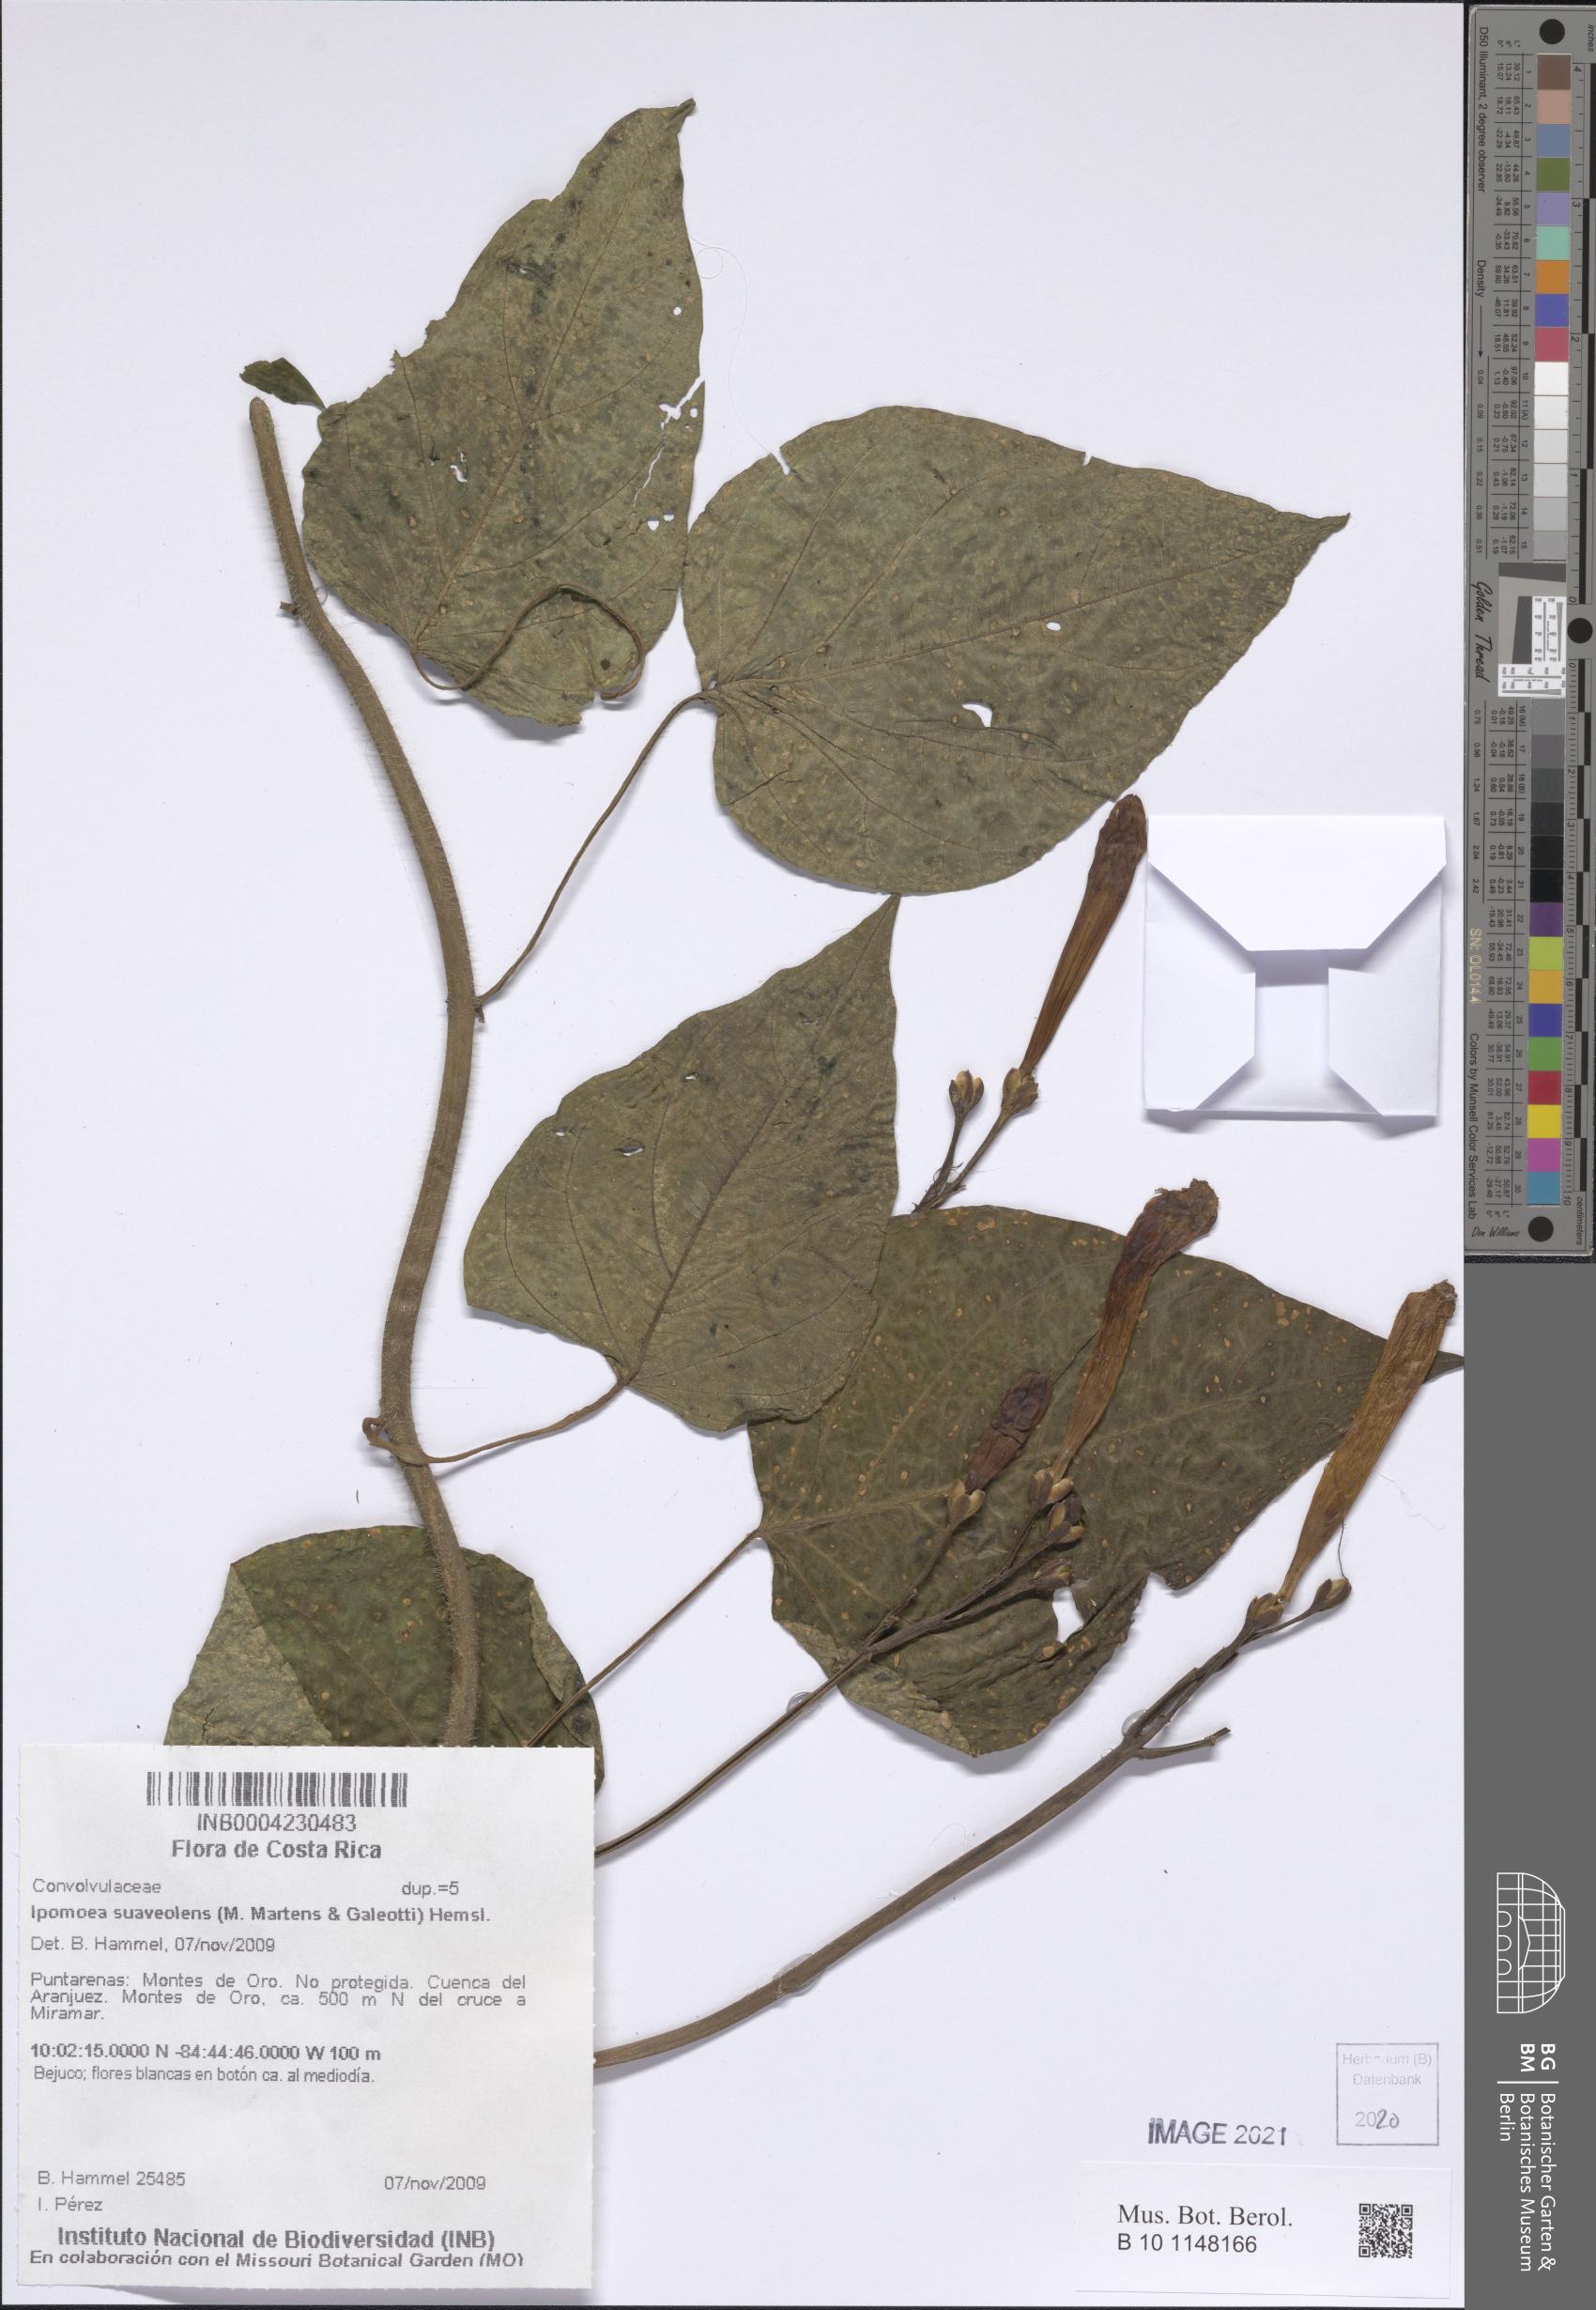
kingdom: Plantae
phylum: Tracheophyta
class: Magnoliopsida
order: Solanales
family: Convolvulaceae
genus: Ipomoea
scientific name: Ipomoea suaveolens
